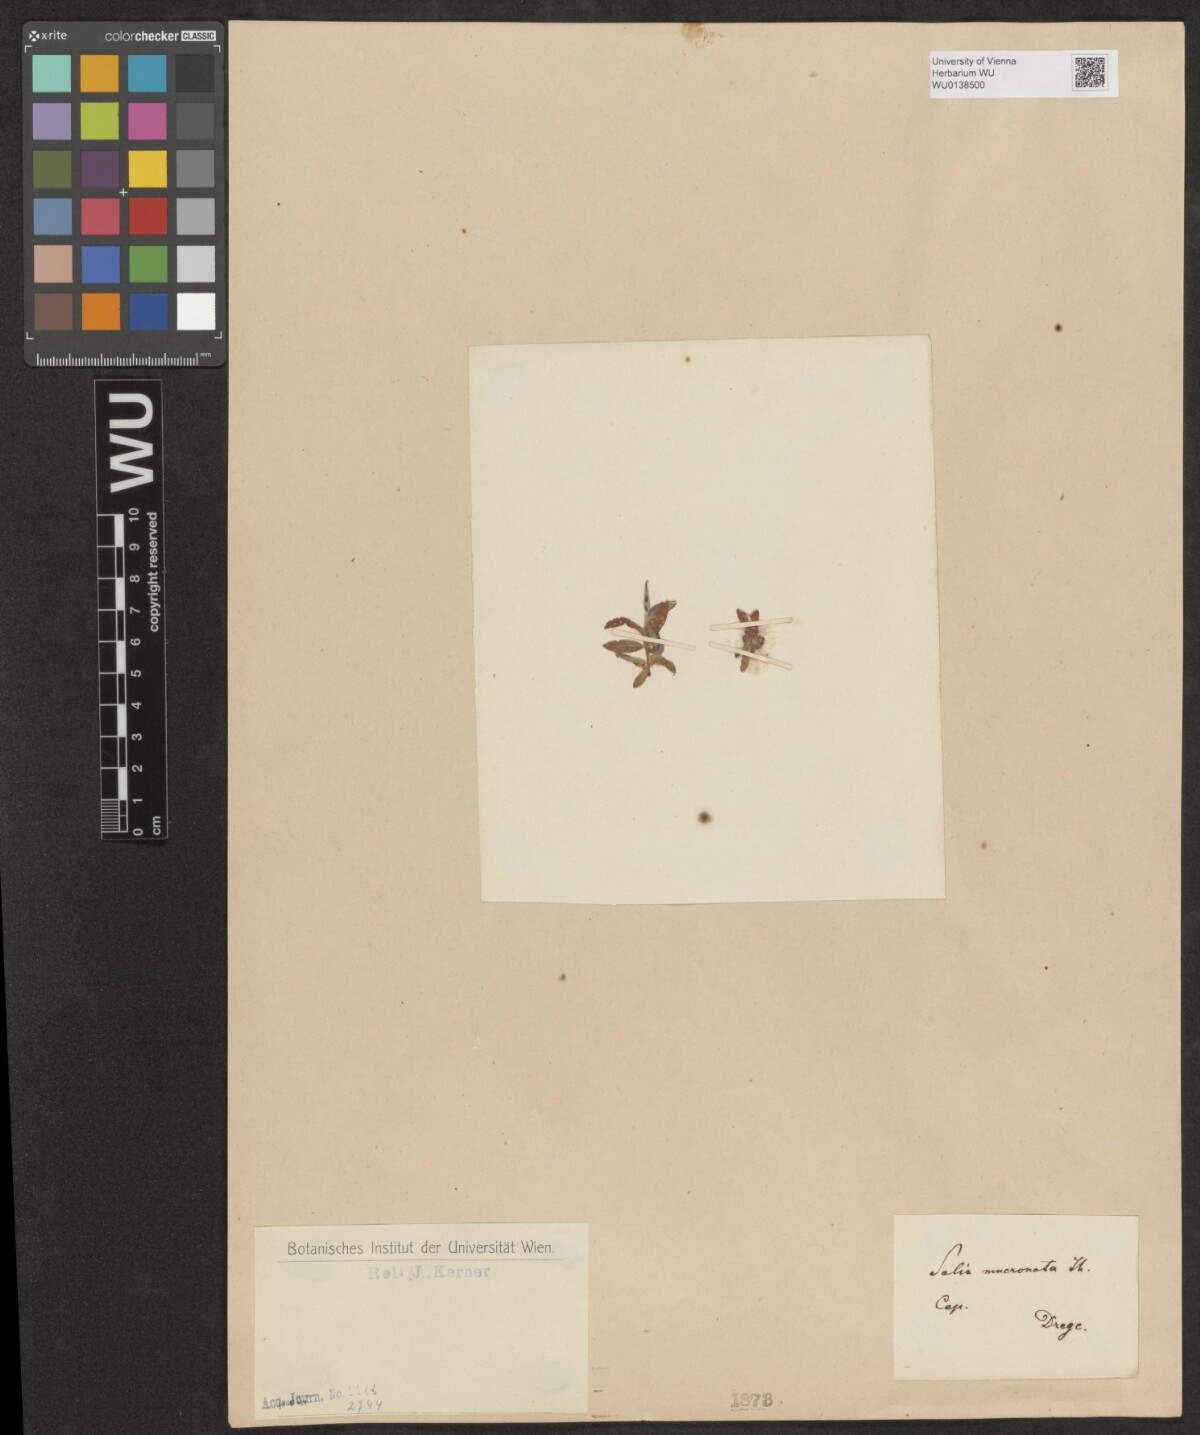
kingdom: Plantae
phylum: Tracheophyta
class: Magnoliopsida
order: Malpighiales
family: Salicaceae
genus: Salix
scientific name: Salix mucronata
